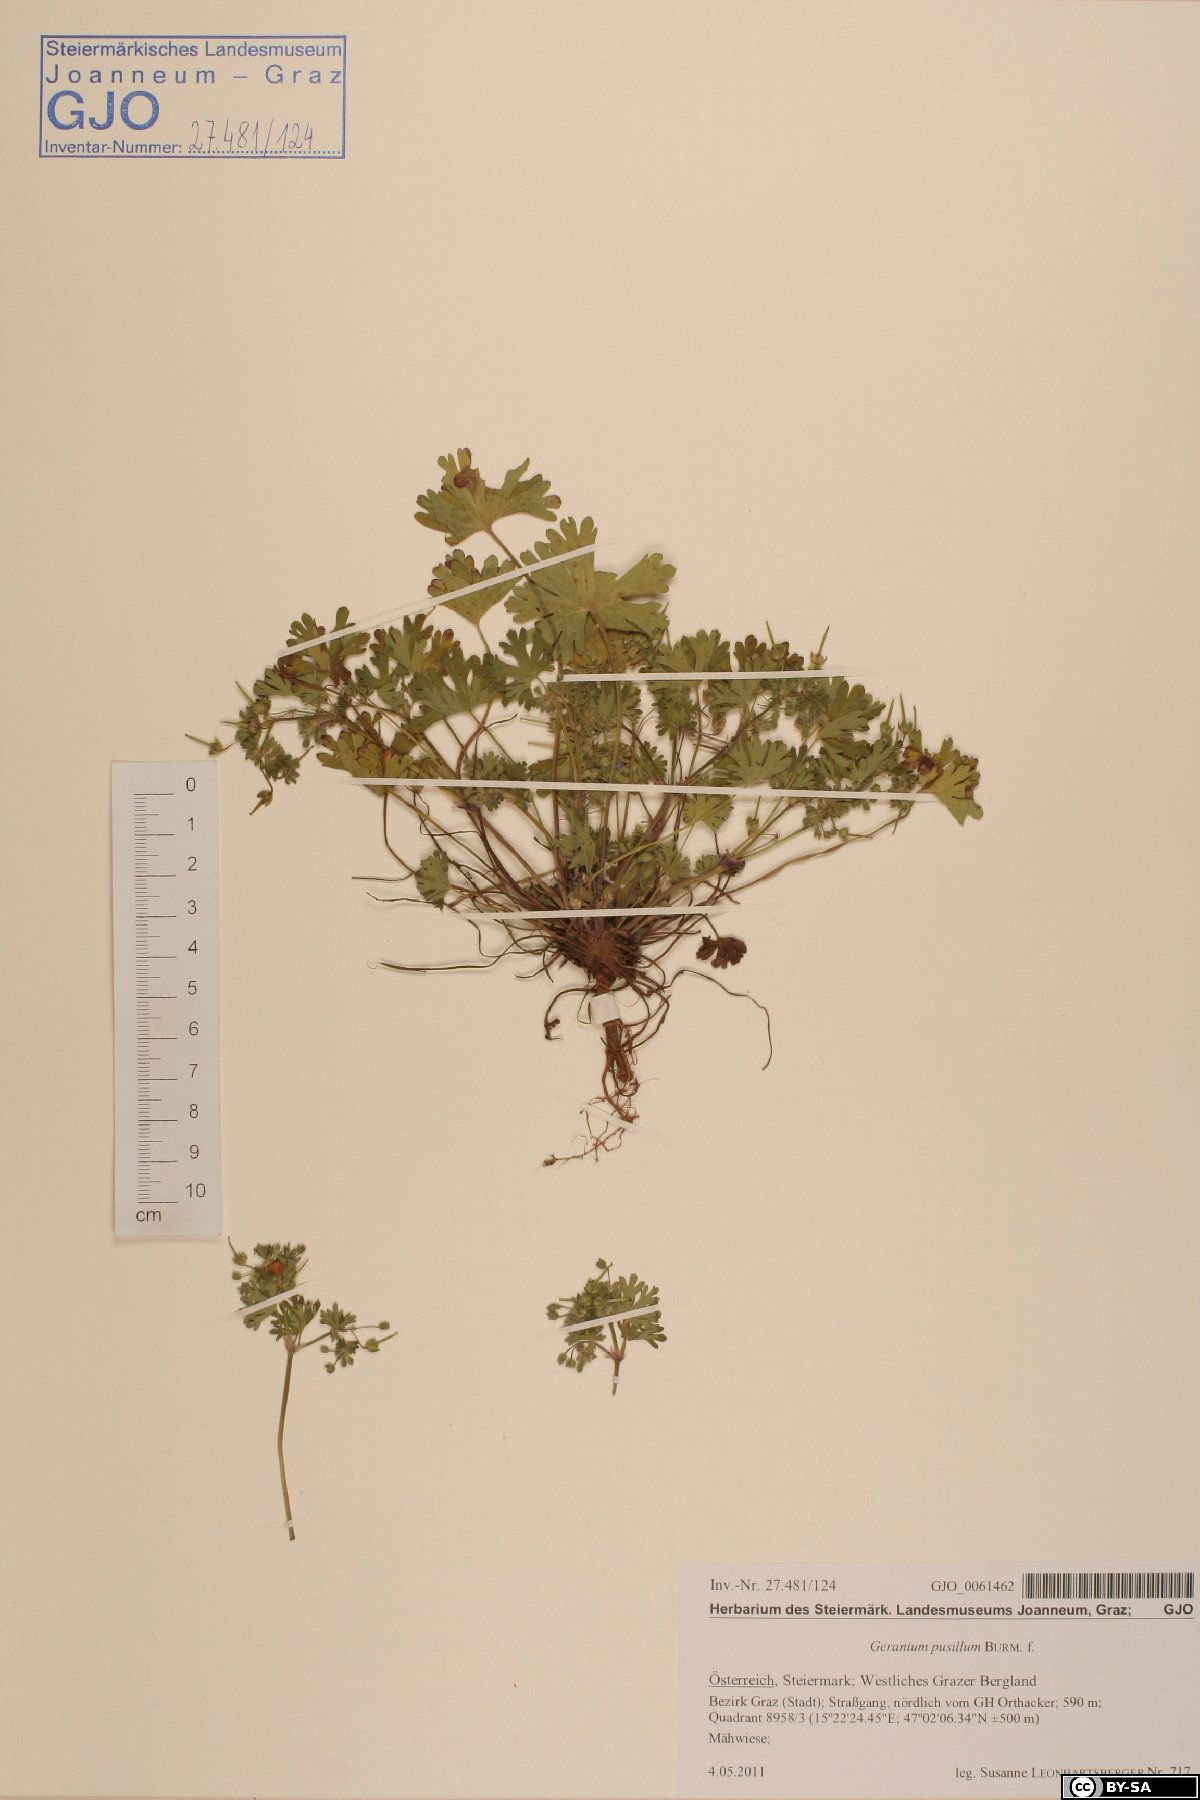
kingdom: Plantae
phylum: Tracheophyta
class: Magnoliopsida
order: Geraniales
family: Geraniaceae
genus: Geranium
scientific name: Geranium pusillum
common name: Small geranium
